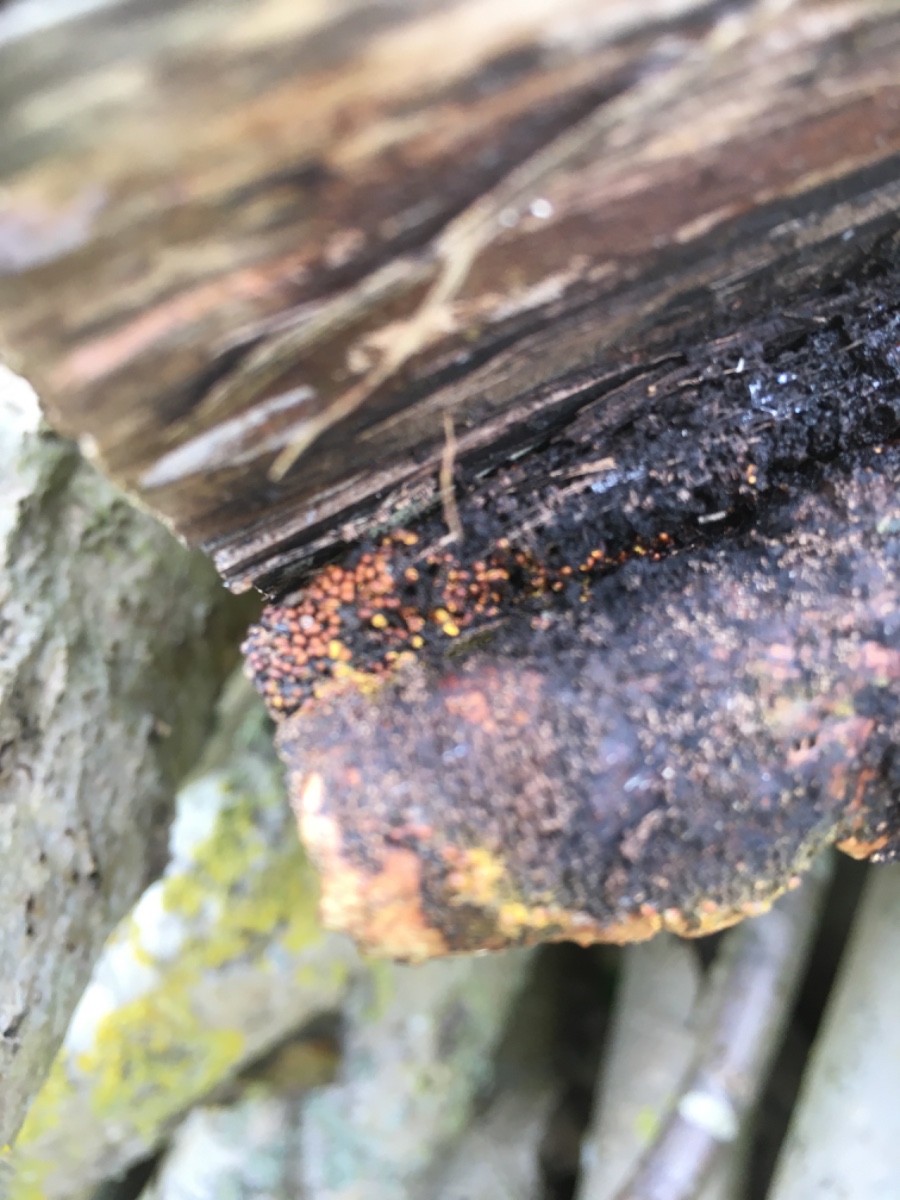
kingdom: Protozoa
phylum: Mycetozoa
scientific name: Mycetozoa
